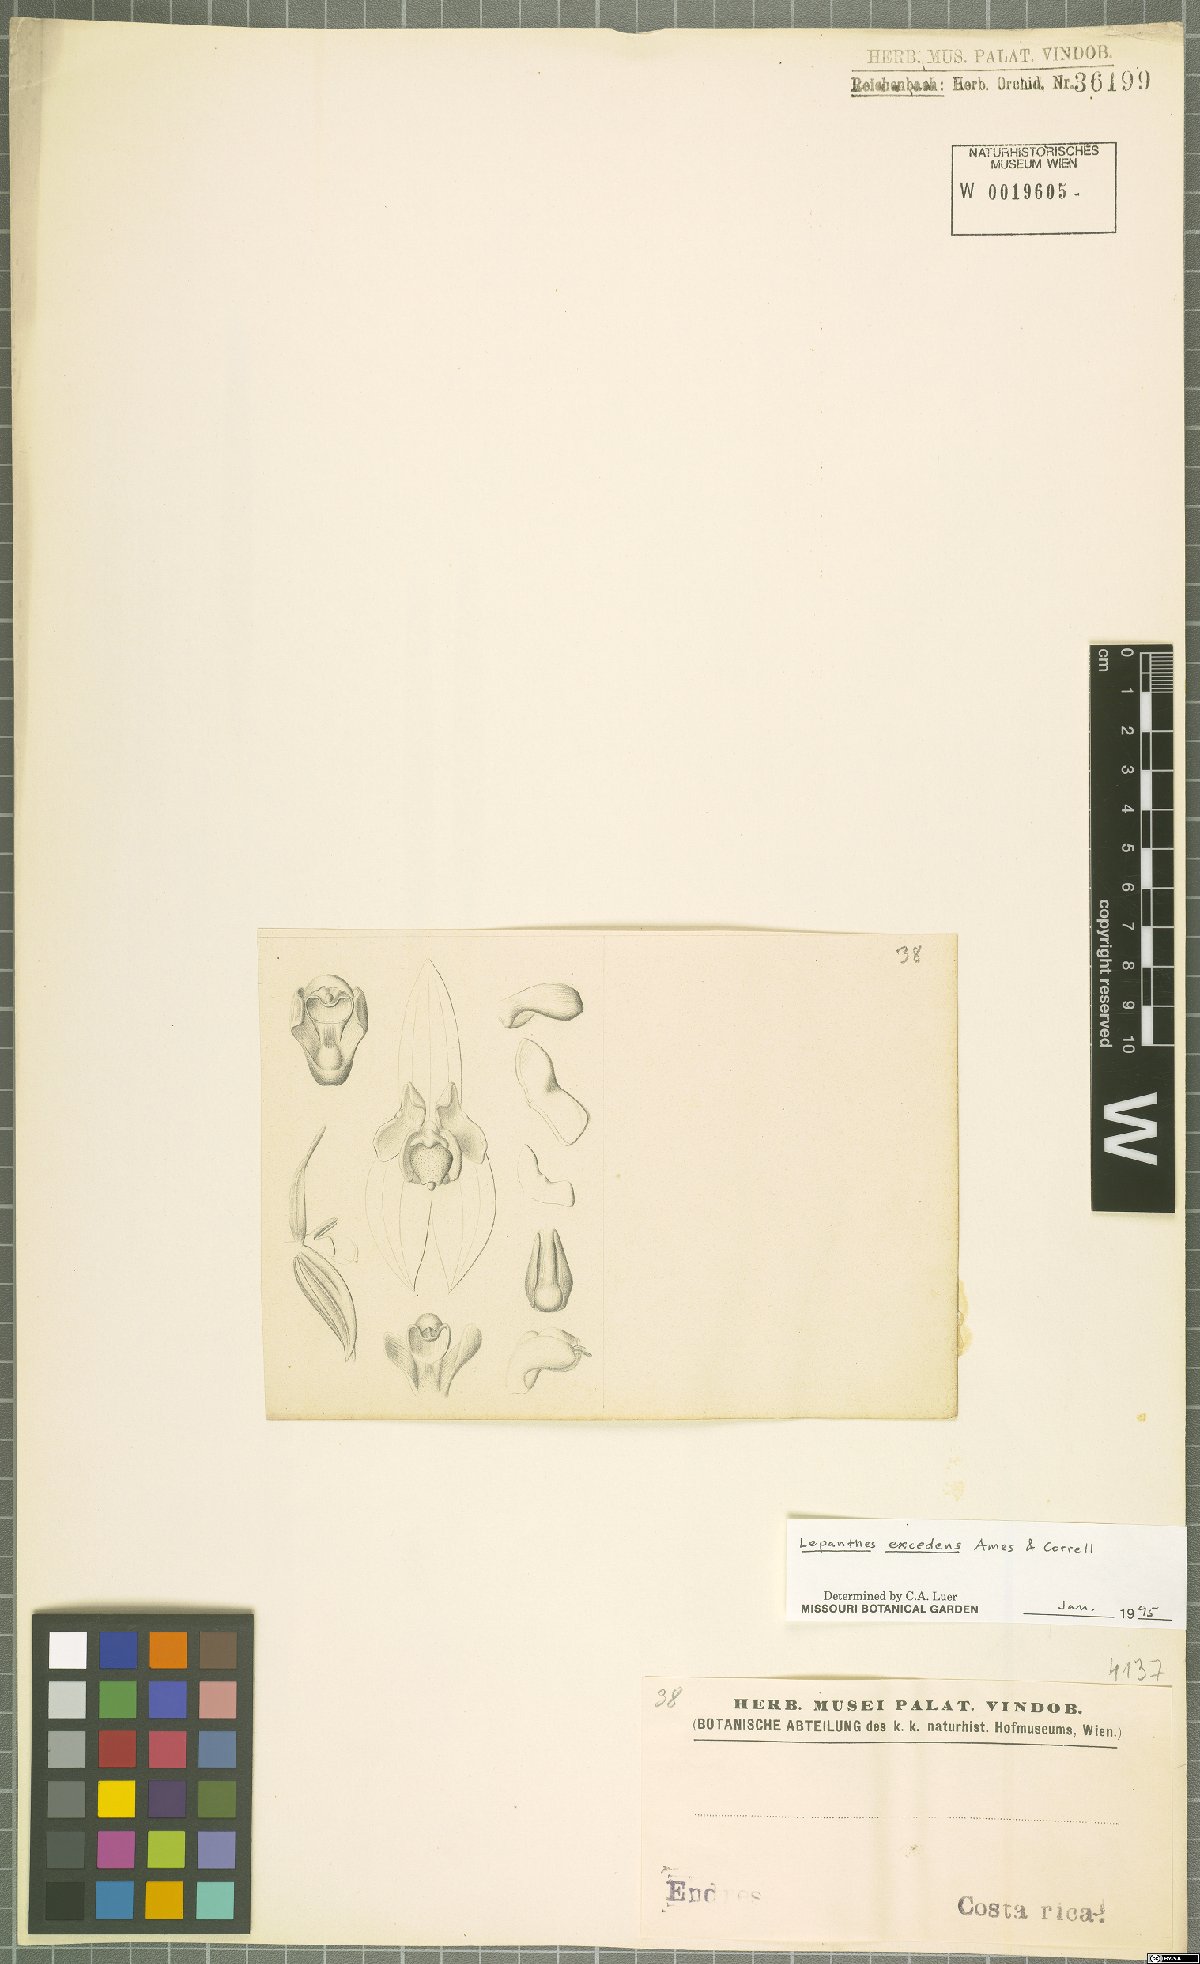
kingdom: Plantae
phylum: Tracheophyta
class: Liliopsida
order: Asparagales
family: Orchidaceae
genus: Lepanthes
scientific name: Lepanthes excedens
